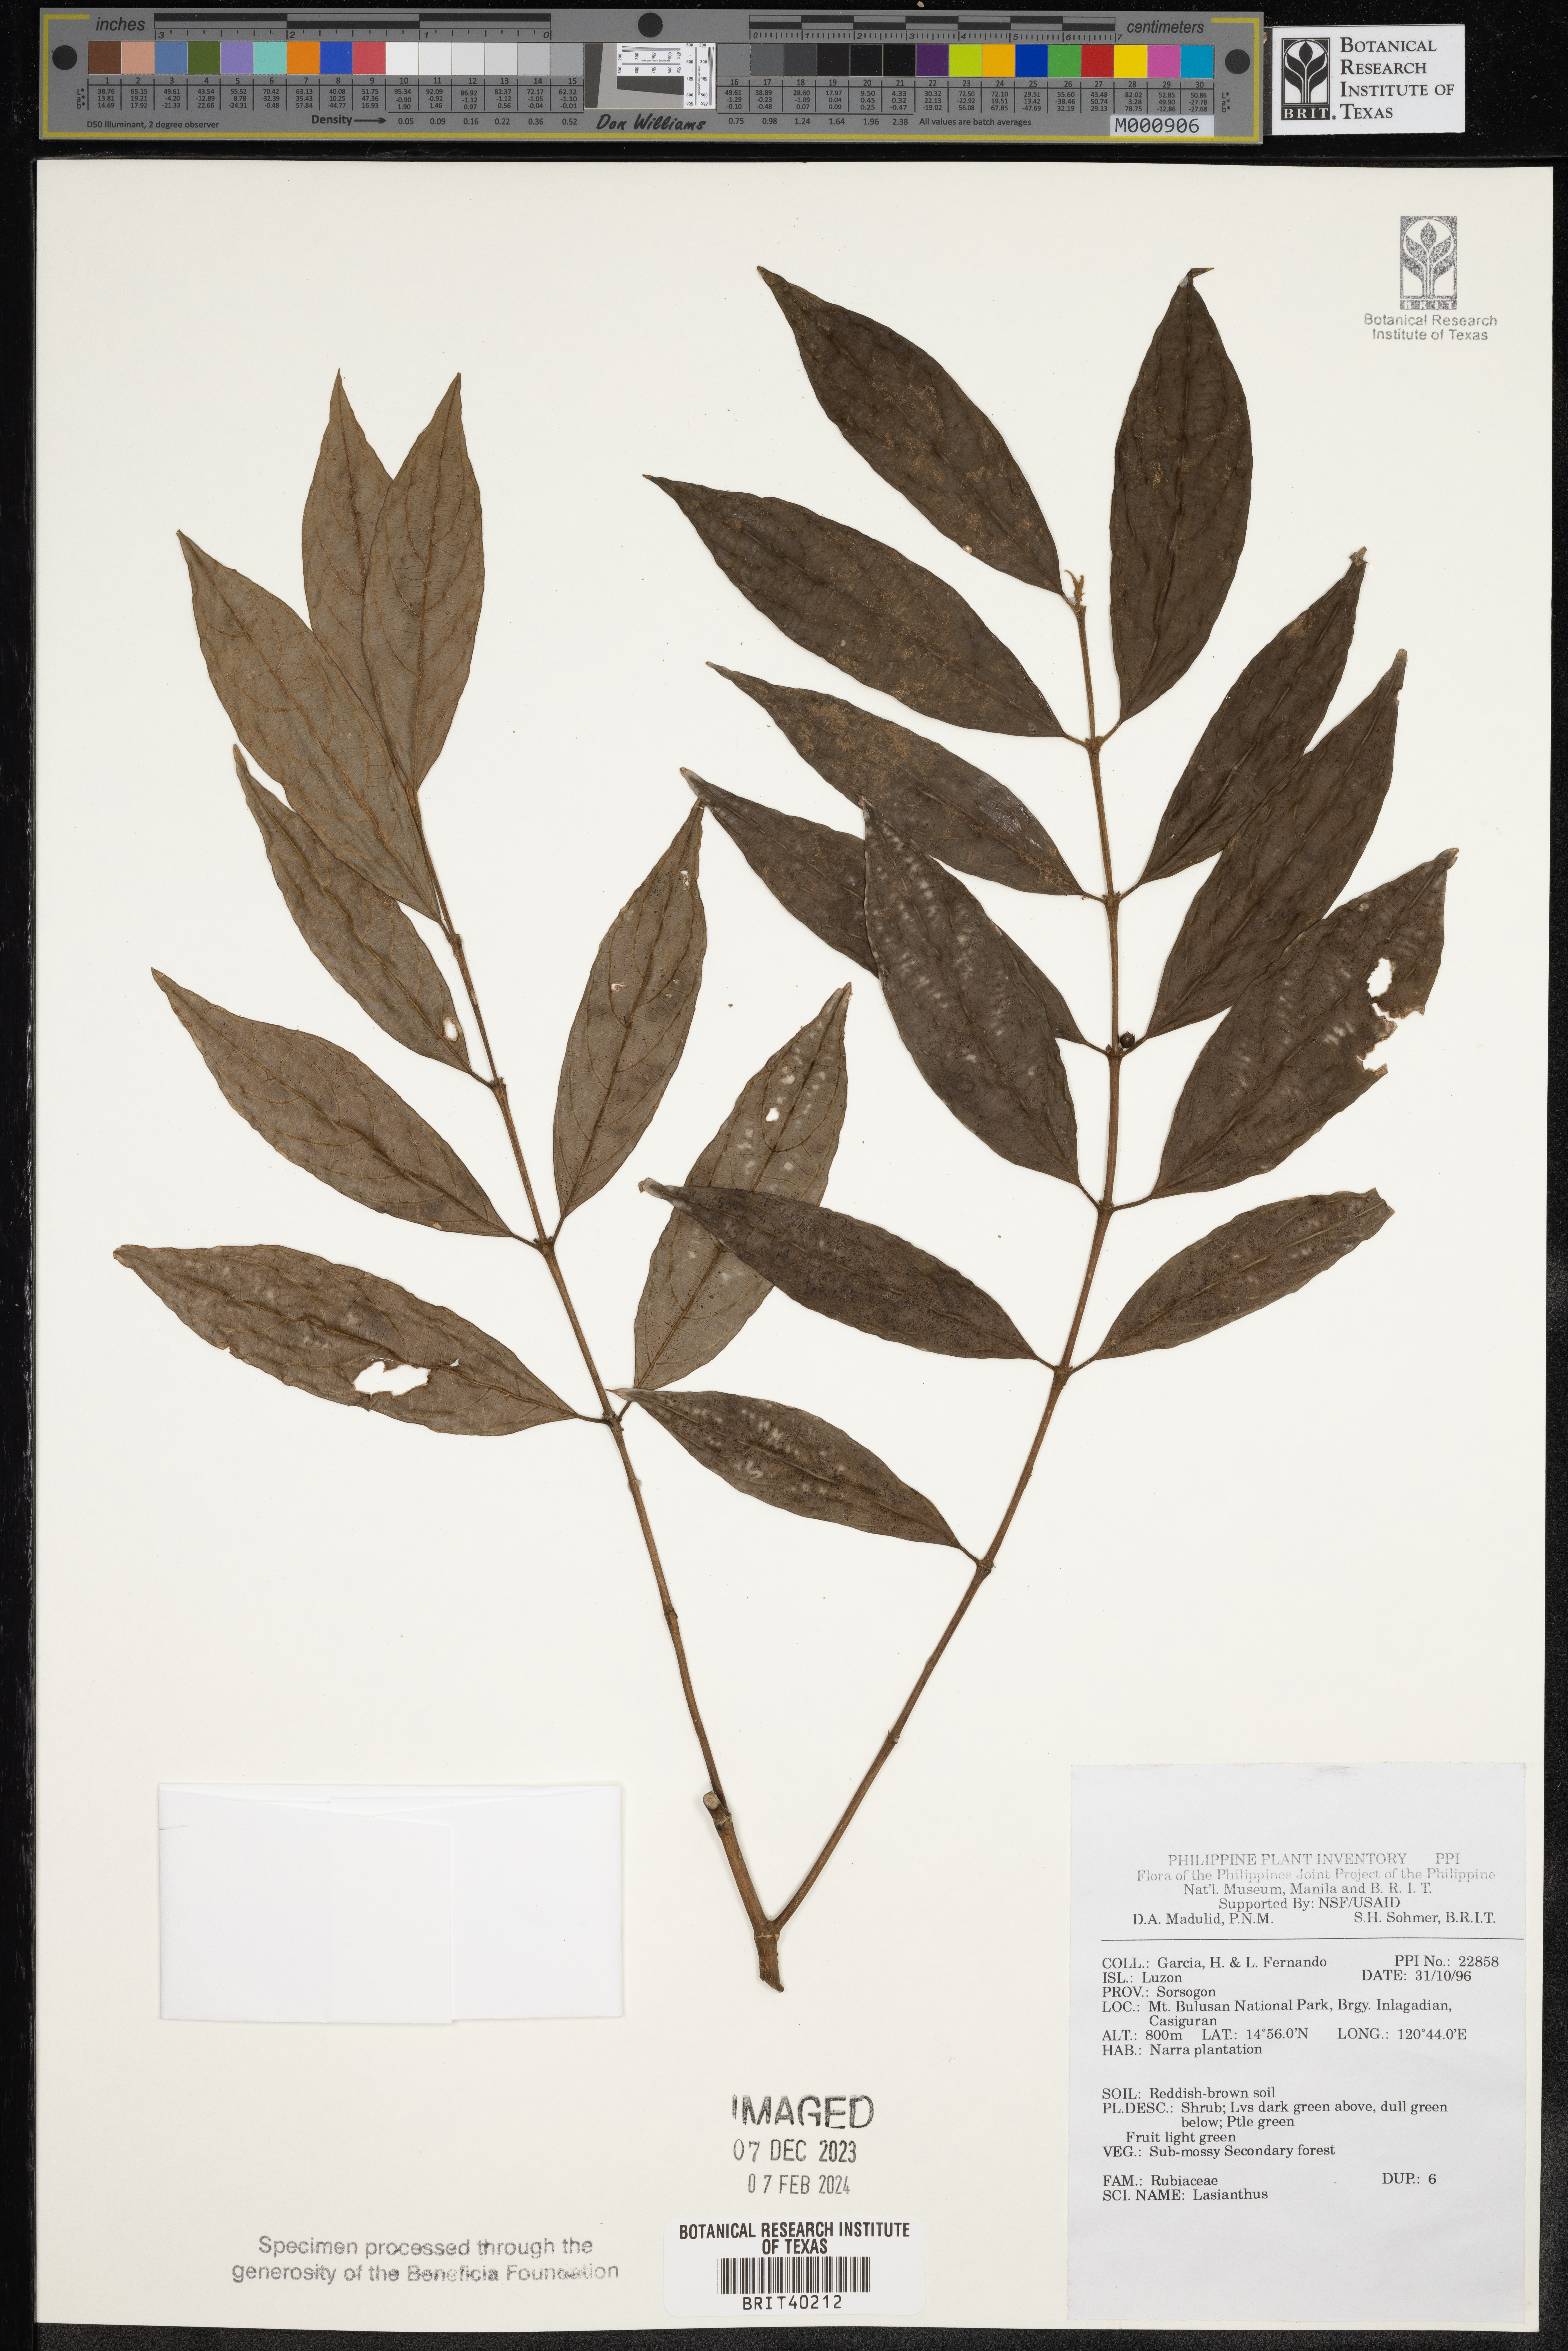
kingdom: Plantae
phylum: Tracheophyta
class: Magnoliopsida
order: Gentianales
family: Rubiaceae
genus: Lasianthus
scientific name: Lasianthus
